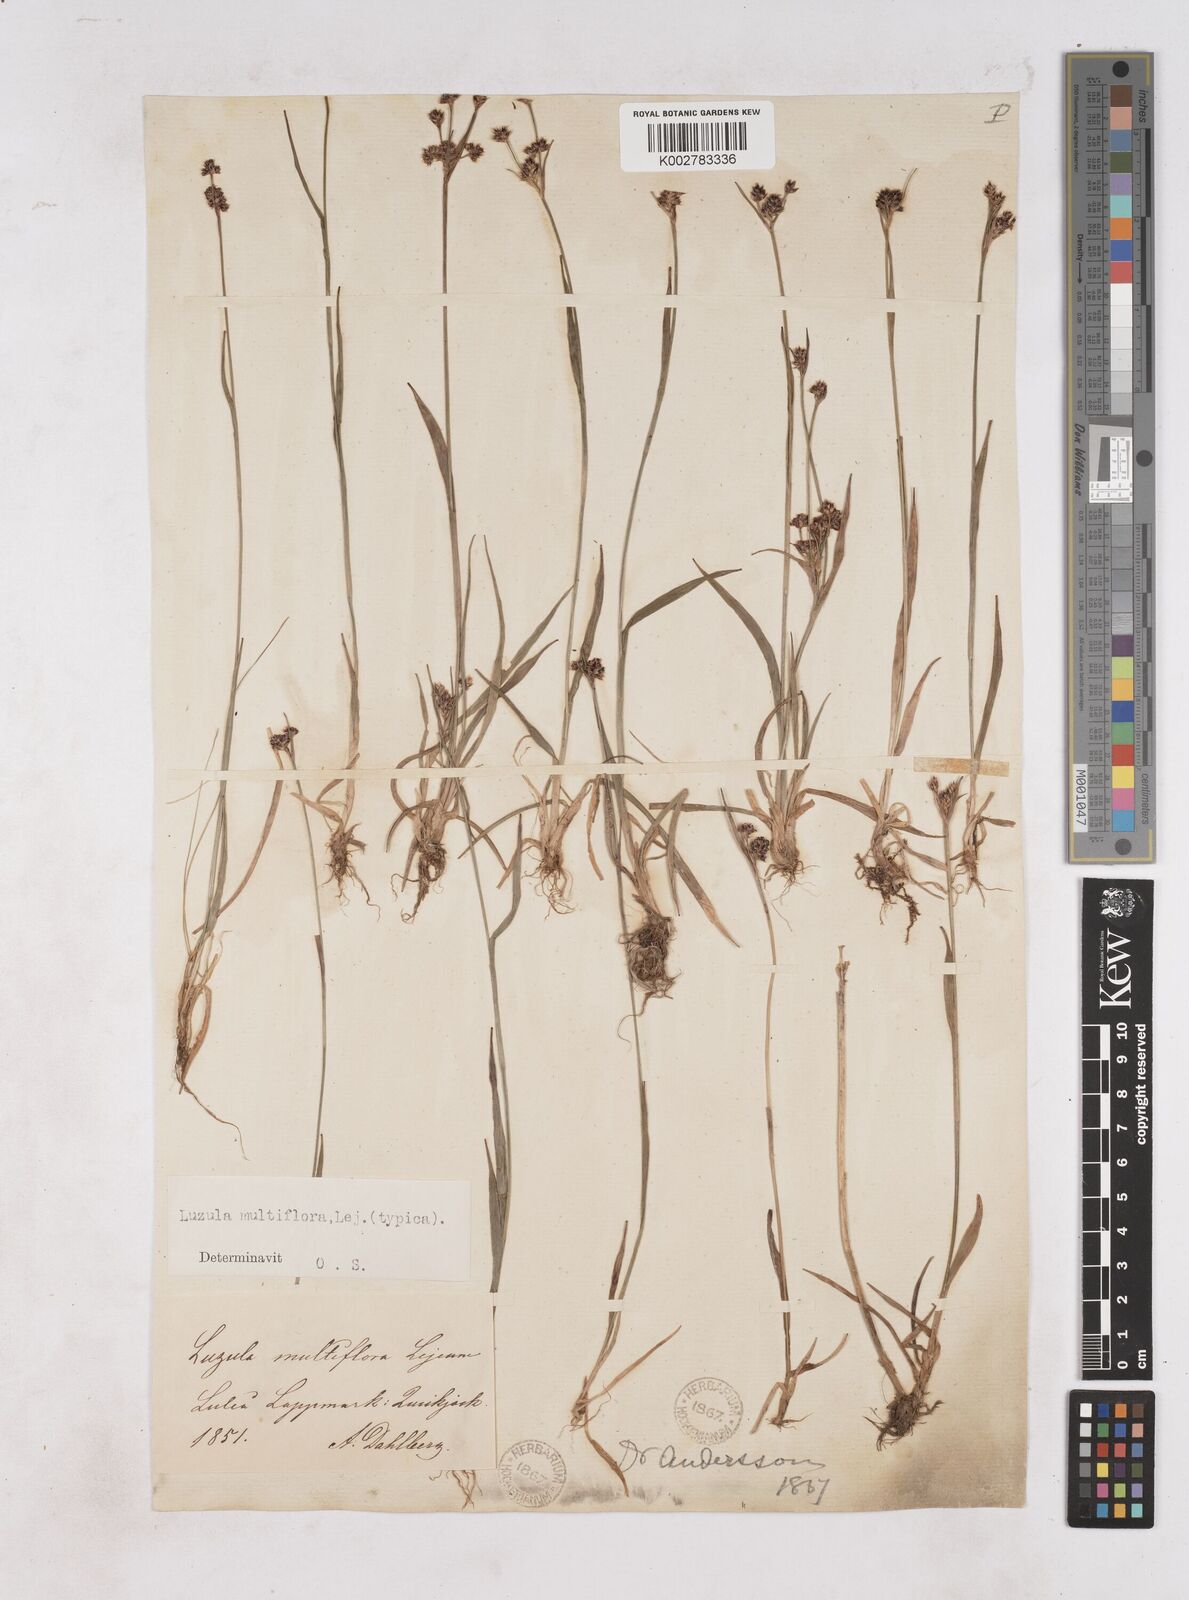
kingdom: Plantae
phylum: Tracheophyta
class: Liliopsida
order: Poales
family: Juncaceae
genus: Luzula
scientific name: Luzula multiflora
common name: Heath wood-rush
